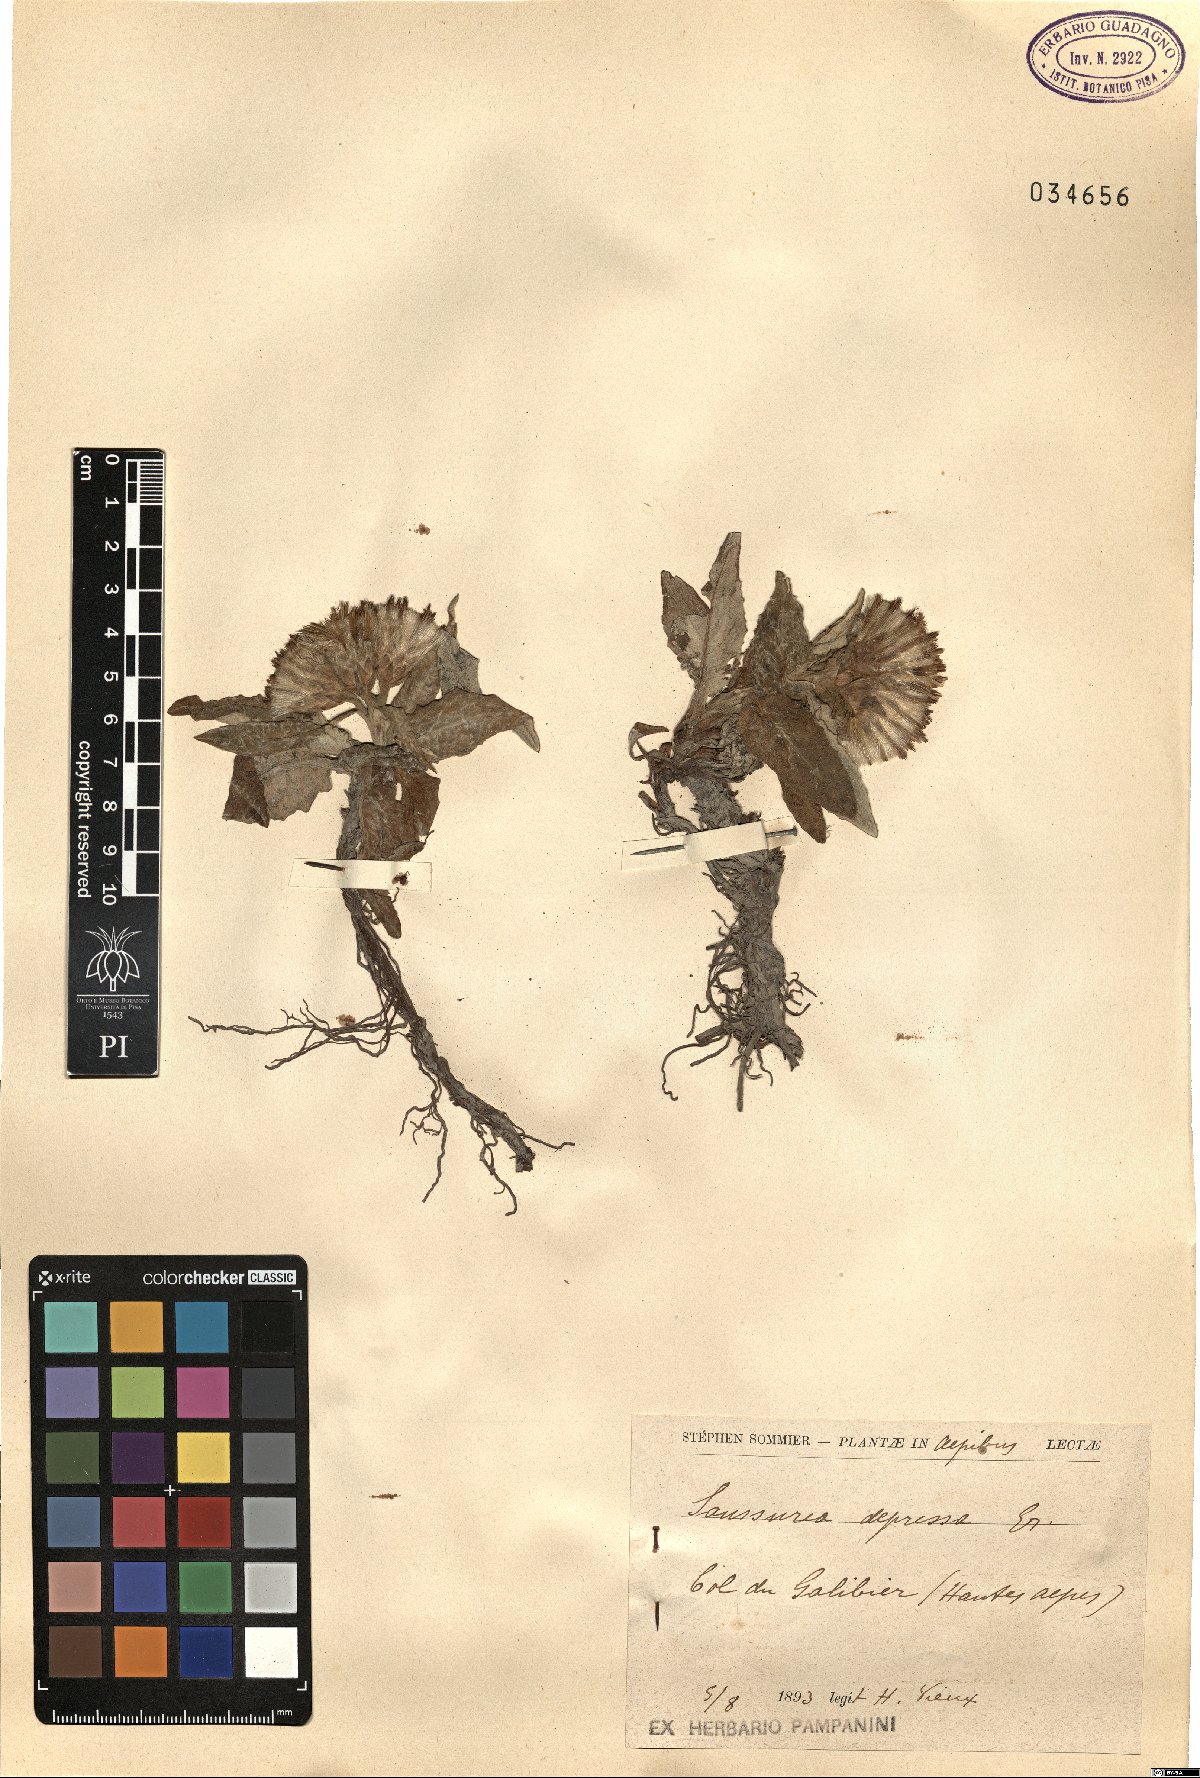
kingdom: Plantae
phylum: Tracheophyta
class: Magnoliopsida
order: Asterales
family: Asteraceae
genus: Saussurea
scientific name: Saussurea depressa
